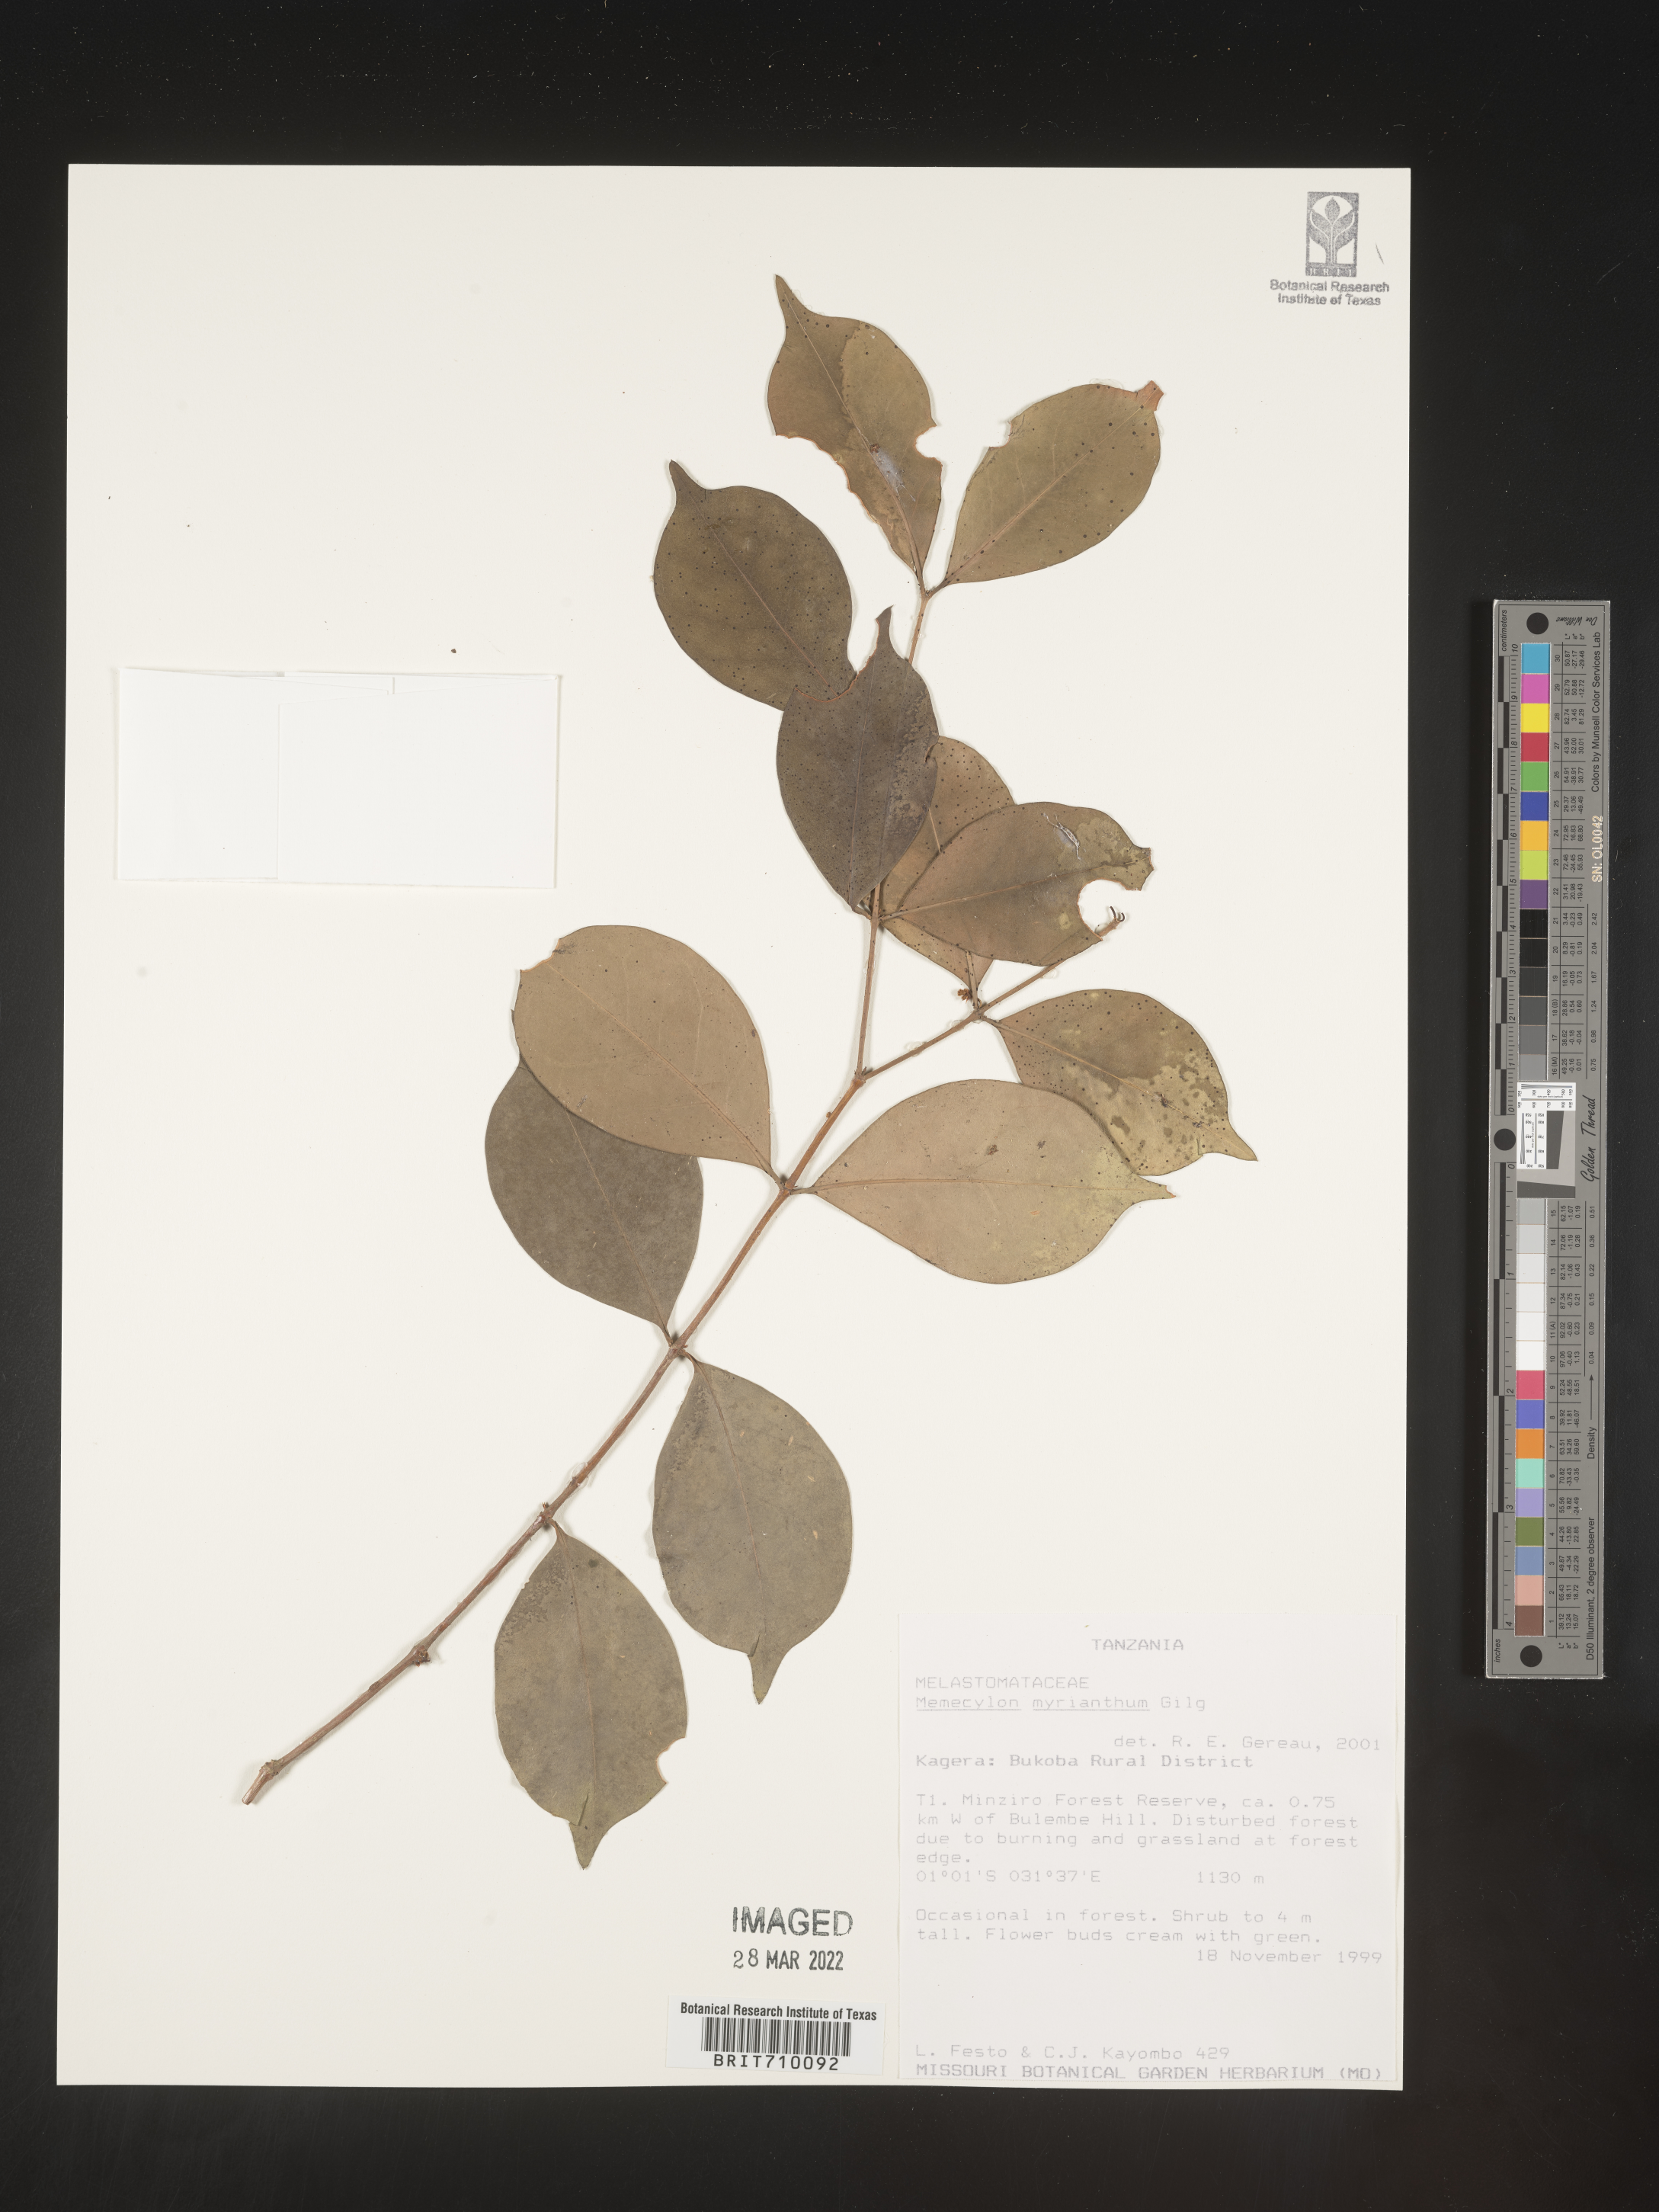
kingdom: Plantae
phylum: Tracheophyta
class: Magnoliopsida
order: Myrtales
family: Melastomataceae
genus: Memecylon
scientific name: Memecylon
